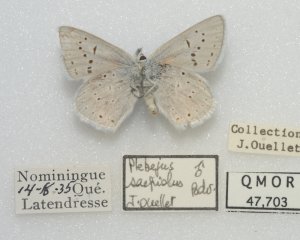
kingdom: Animalia
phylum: Arthropoda
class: Insecta
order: Lepidoptera
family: Lycaenidae
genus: Plebejus
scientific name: Plebejus saepiolus
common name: Greenish Blue
